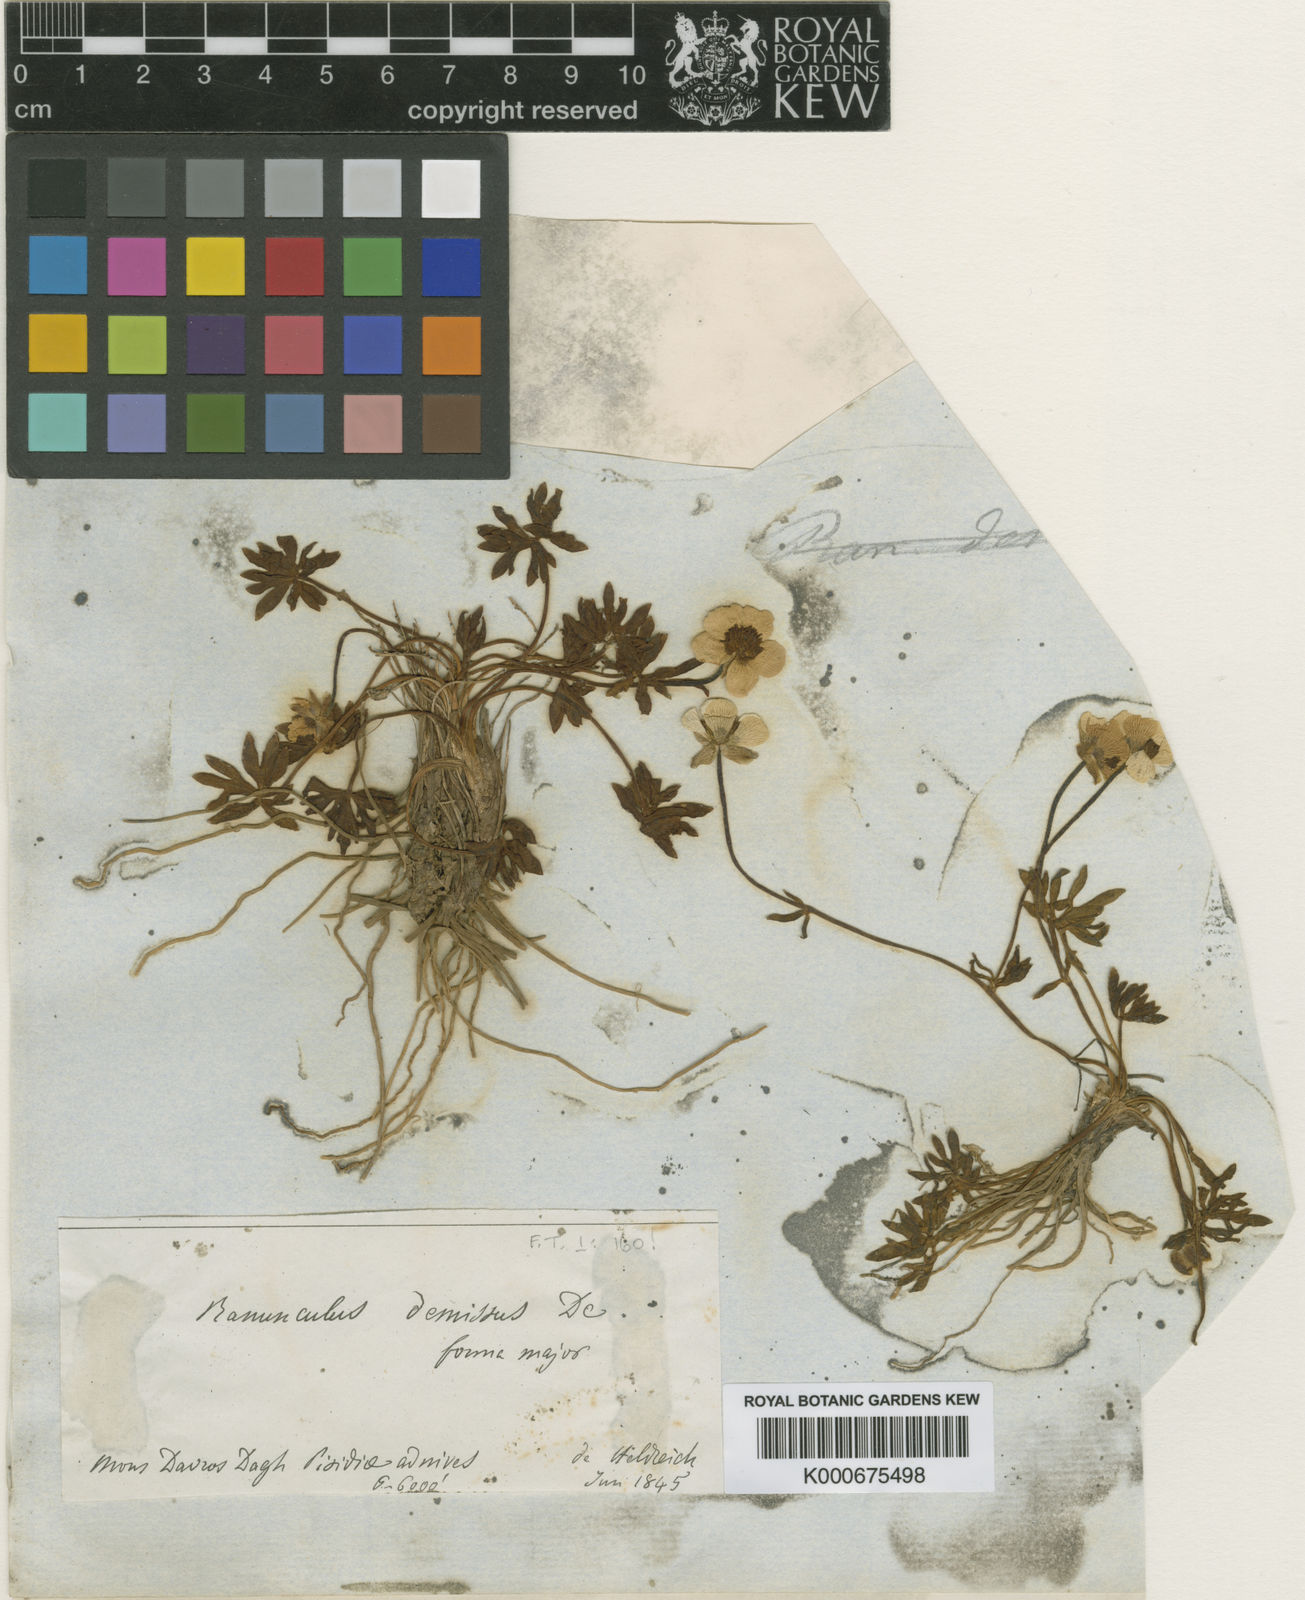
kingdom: Plantae
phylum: Tracheophyta
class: Magnoliopsida
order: Ranunculales
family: Ranunculaceae
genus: Ranunculus
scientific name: Ranunculus demissus
